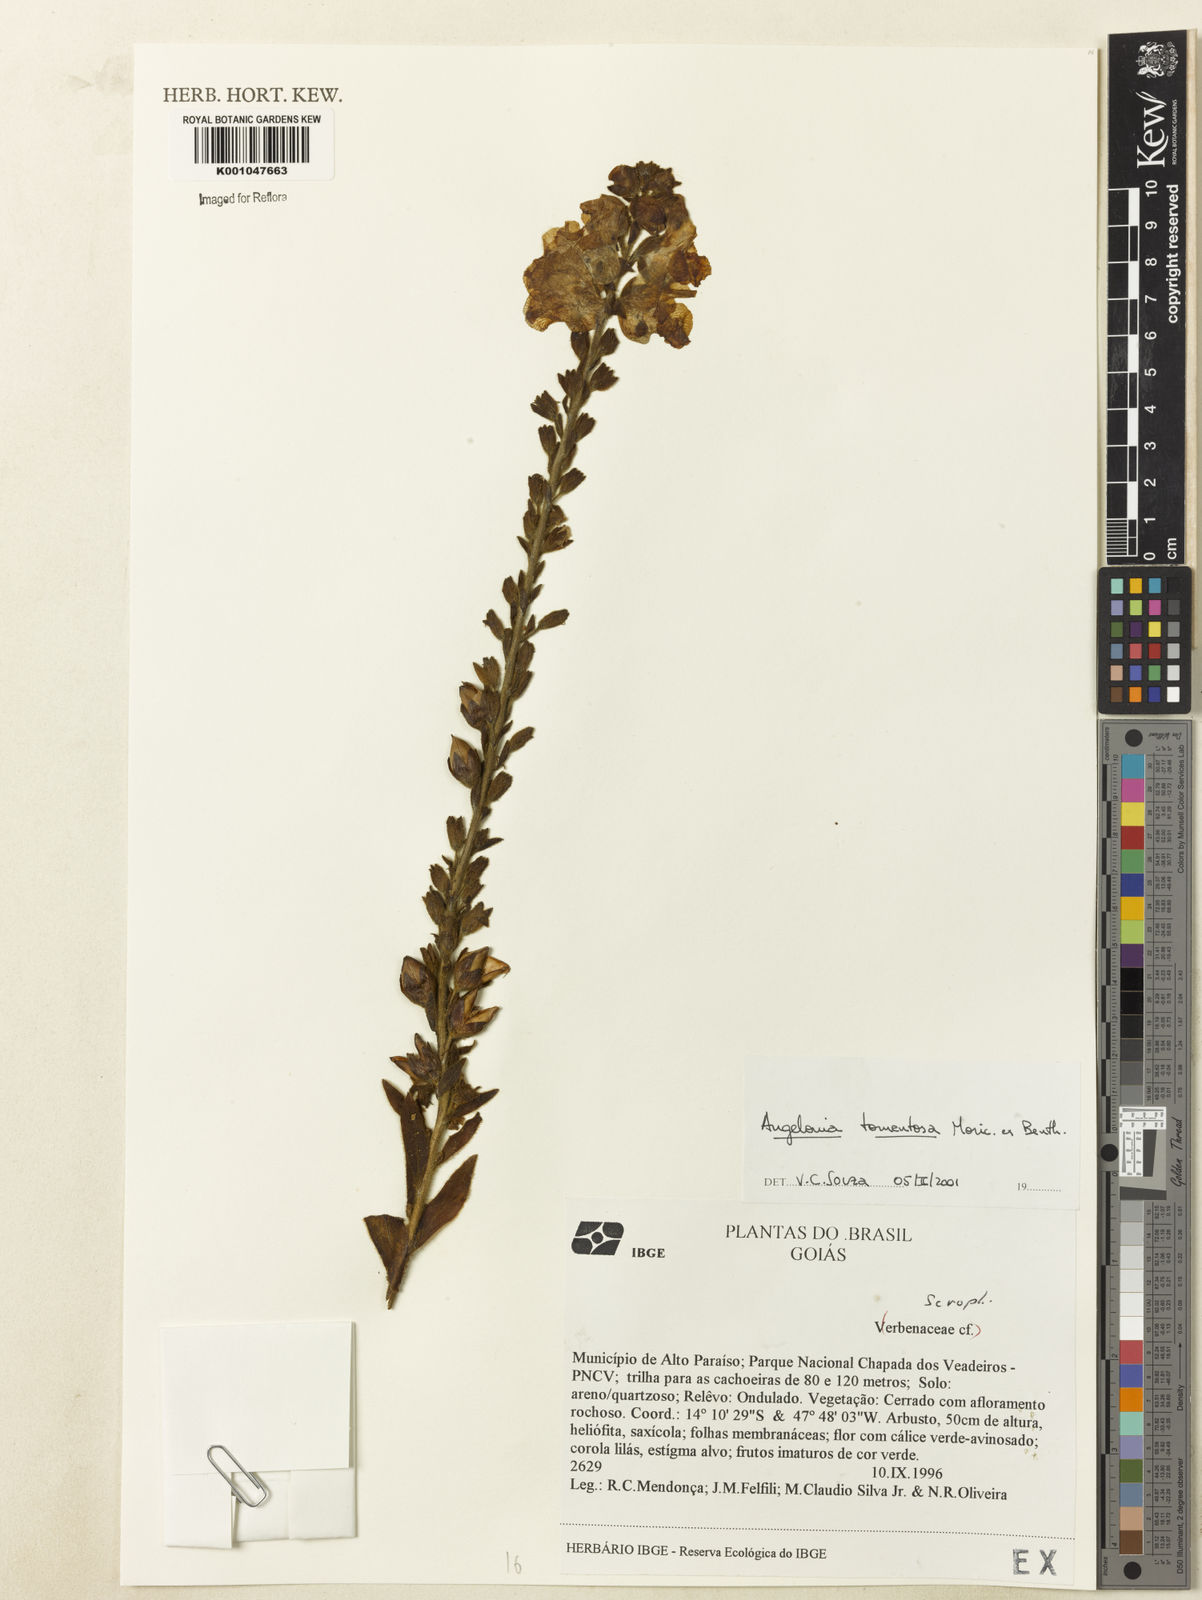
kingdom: Plantae
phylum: Tracheophyta
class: Magnoliopsida
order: Lamiales
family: Plantaginaceae
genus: Angelonia
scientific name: Angelonia tomentosa
